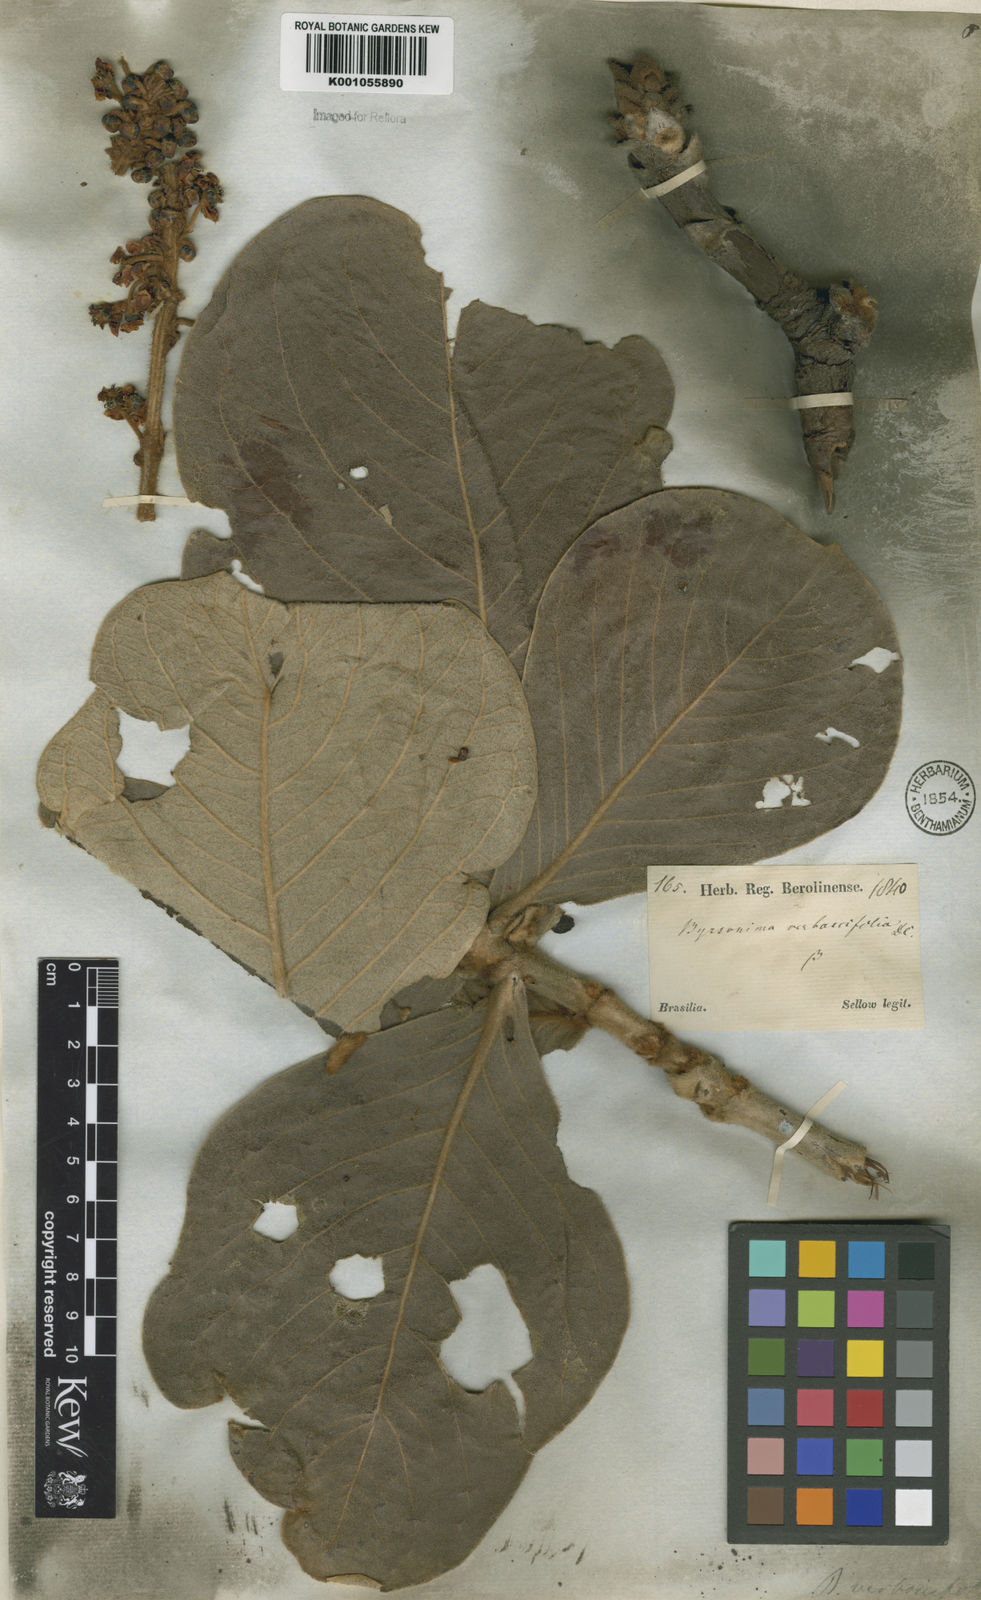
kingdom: Plantae
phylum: Tracheophyta
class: Magnoliopsida
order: Malpighiales
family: Malpighiaceae
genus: Byrsonima
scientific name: Byrsonima verbascifolia
